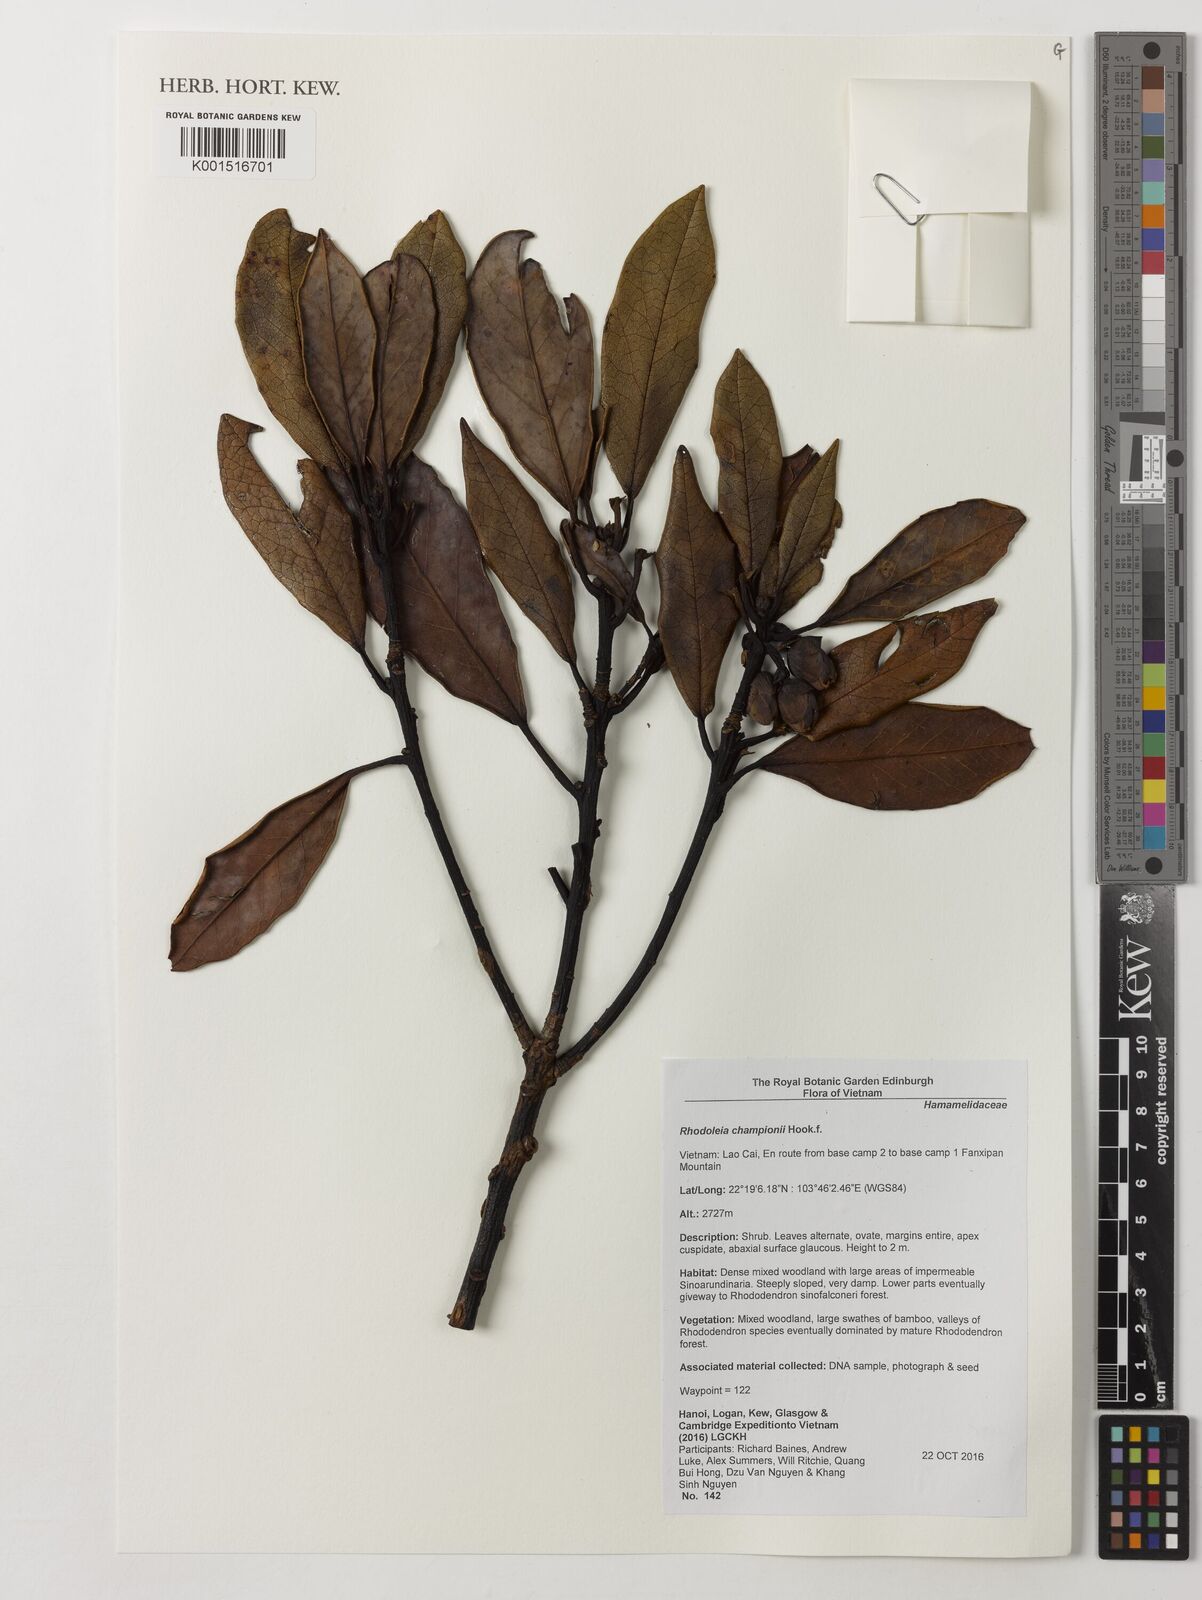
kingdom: Plantae
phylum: Tracheophyta
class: Magnoliopsida
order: Saxifragales
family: Hamamelidaceae
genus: Rhodoleia
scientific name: Rhodoleia championii
